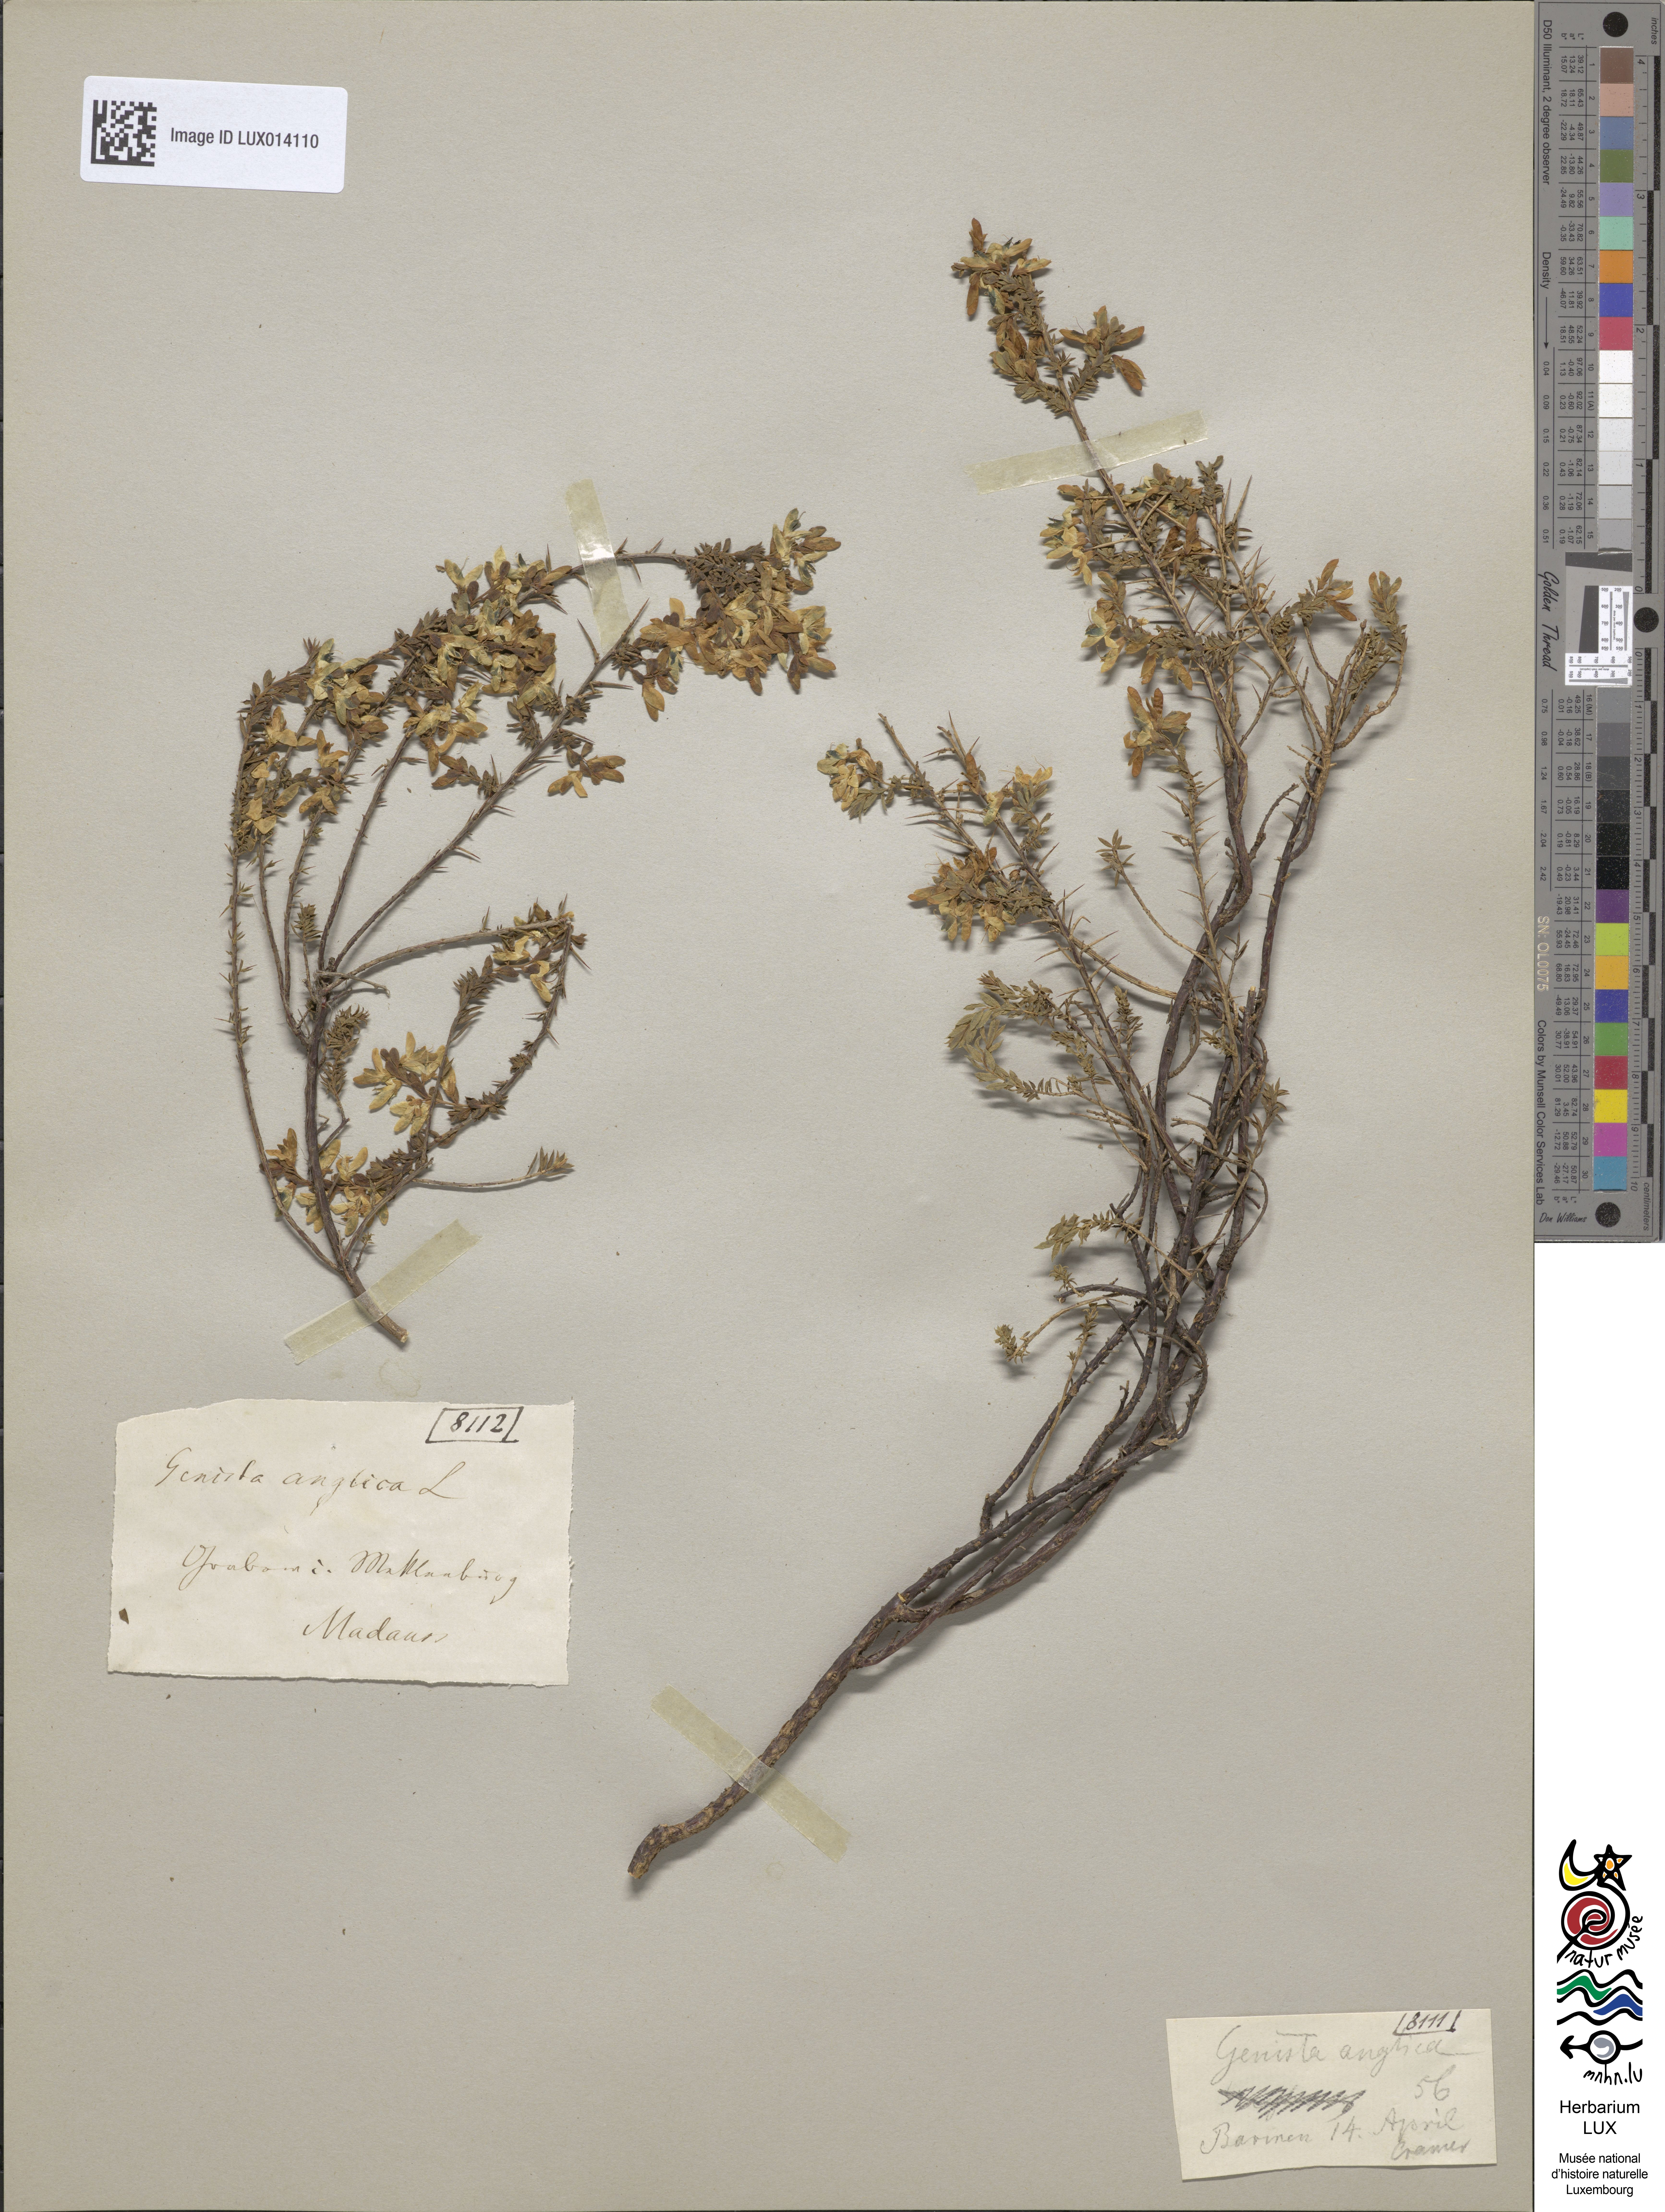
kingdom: Plantae
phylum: Tracheophyta
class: Magnoliopsida
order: Fabales
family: Fabaceae
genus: Genista
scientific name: Genista anglica
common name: Petty whin
